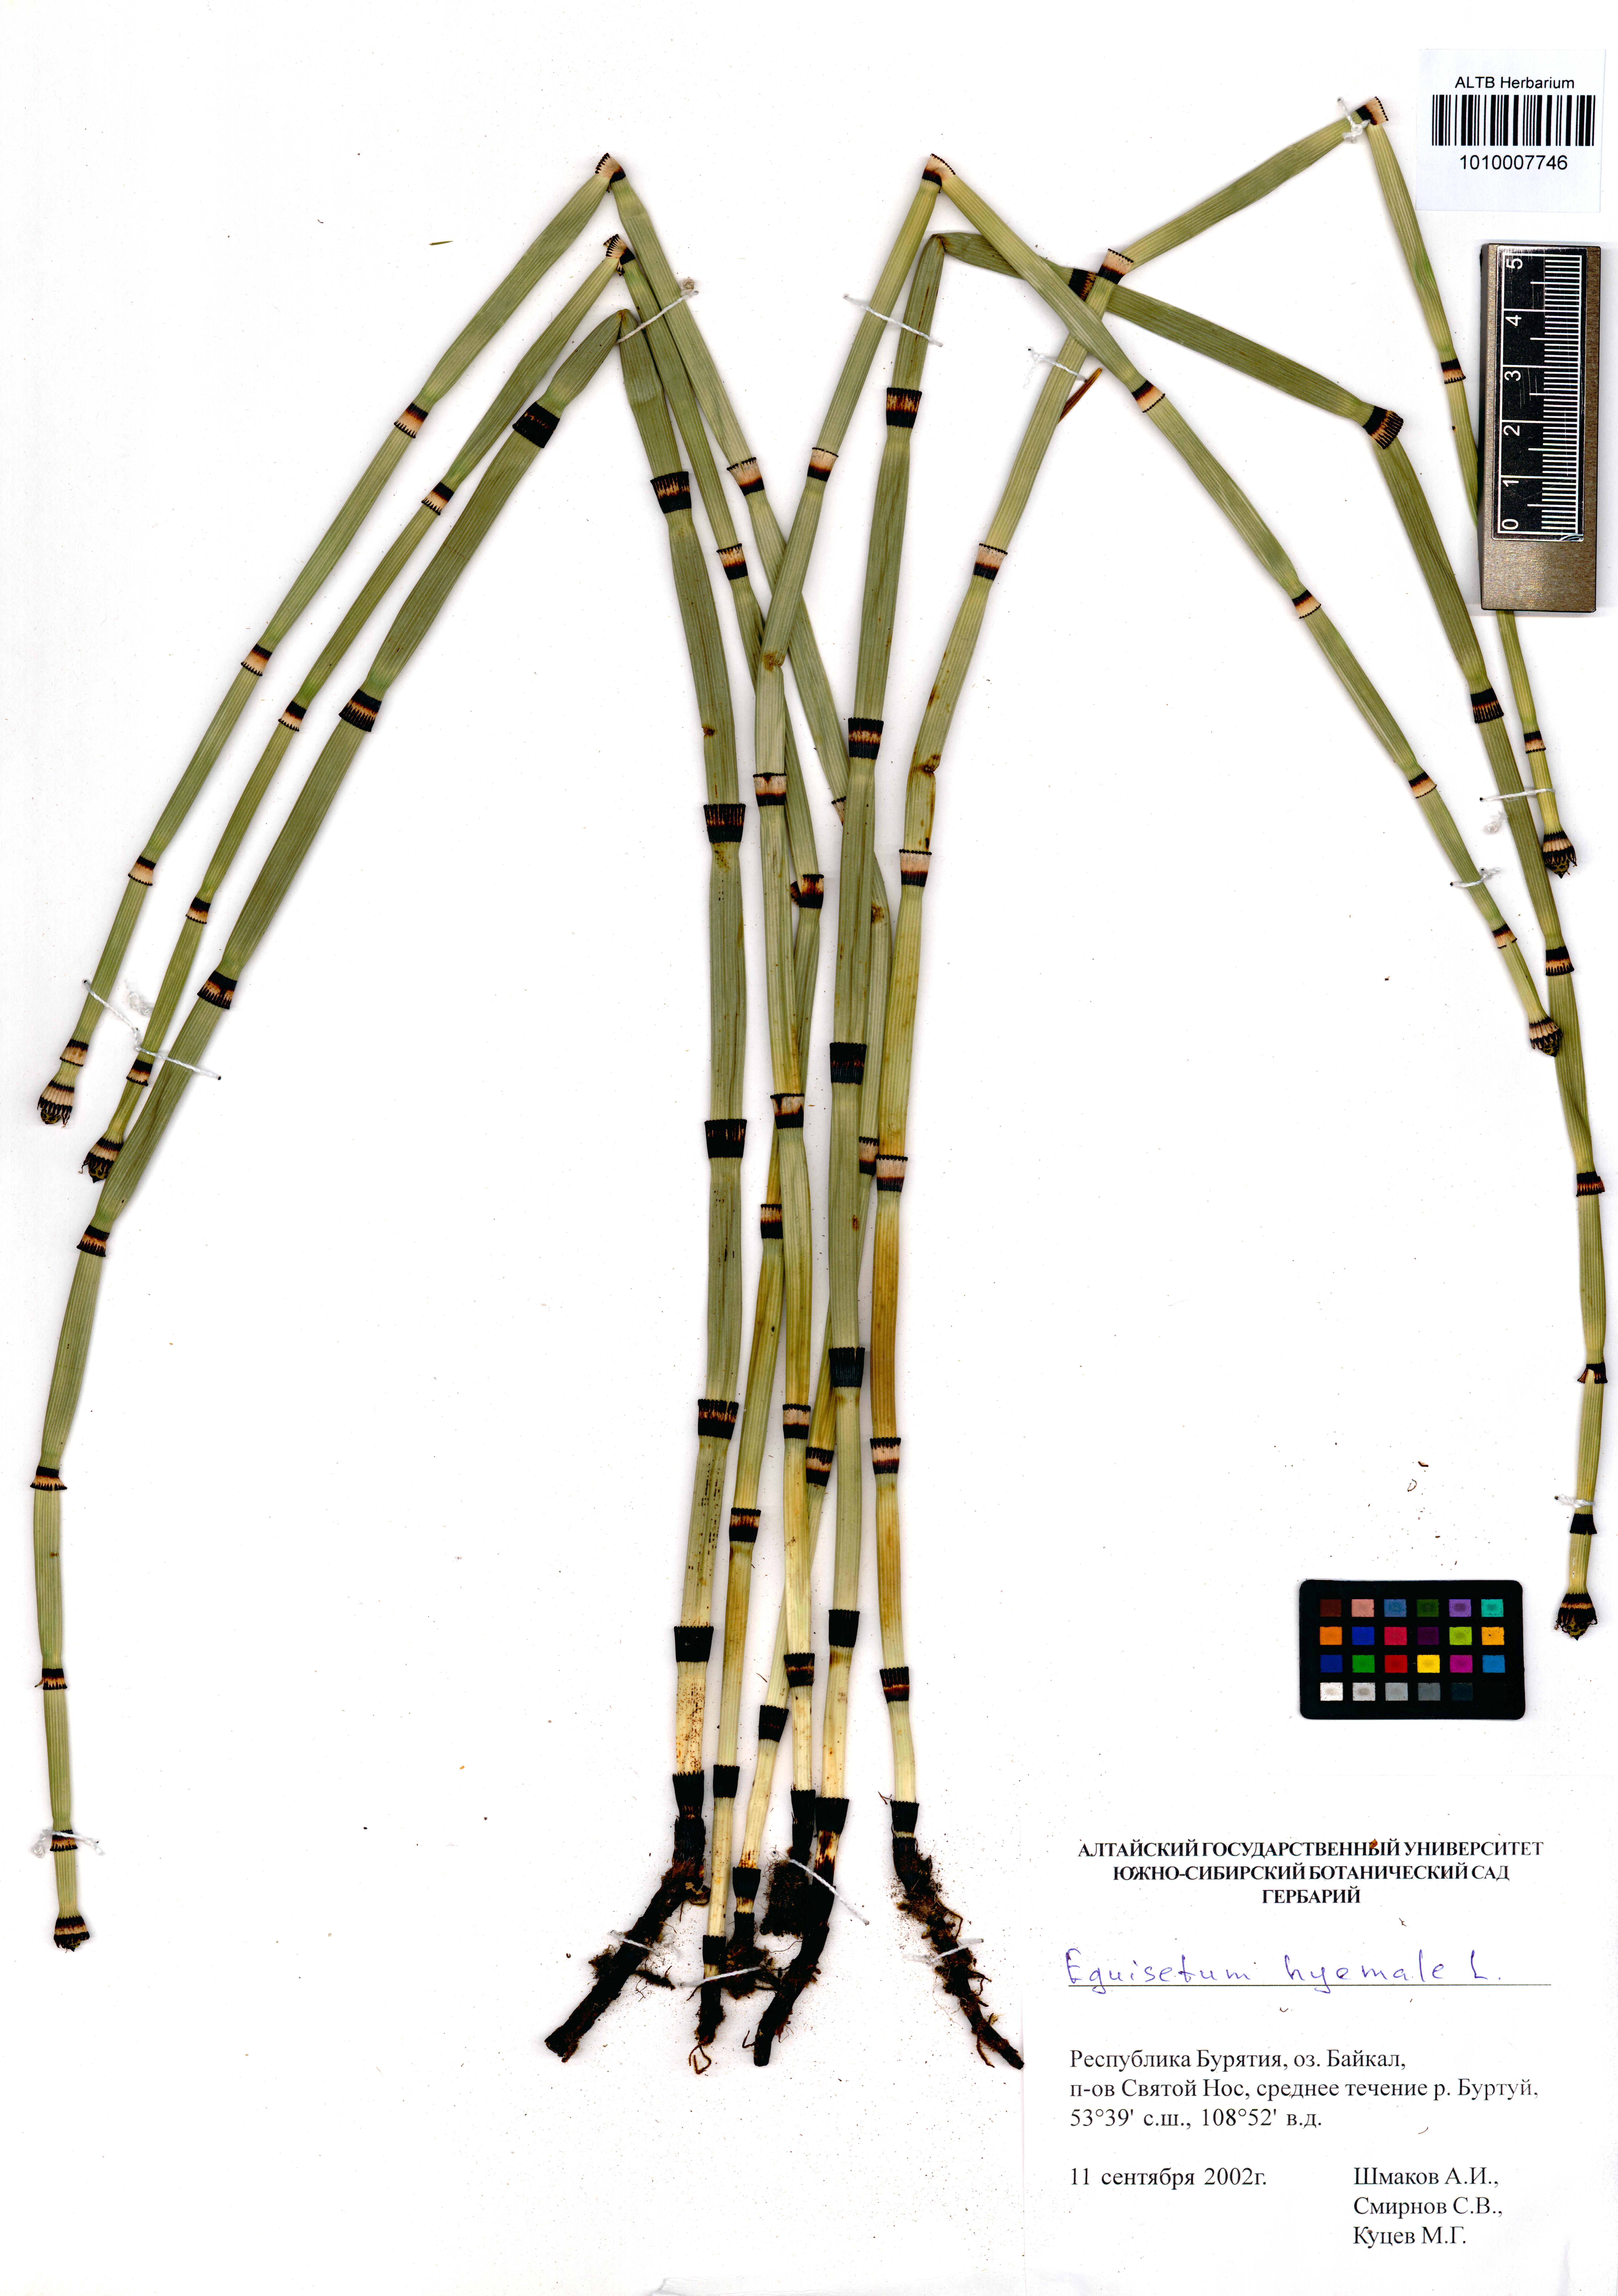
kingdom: Plantae
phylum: Tracheophyta
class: Polypodiopsida
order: Equisetales
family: Equisetaceae
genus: Equisetum
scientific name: Equisetum hyemale
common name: Rough horsetail
